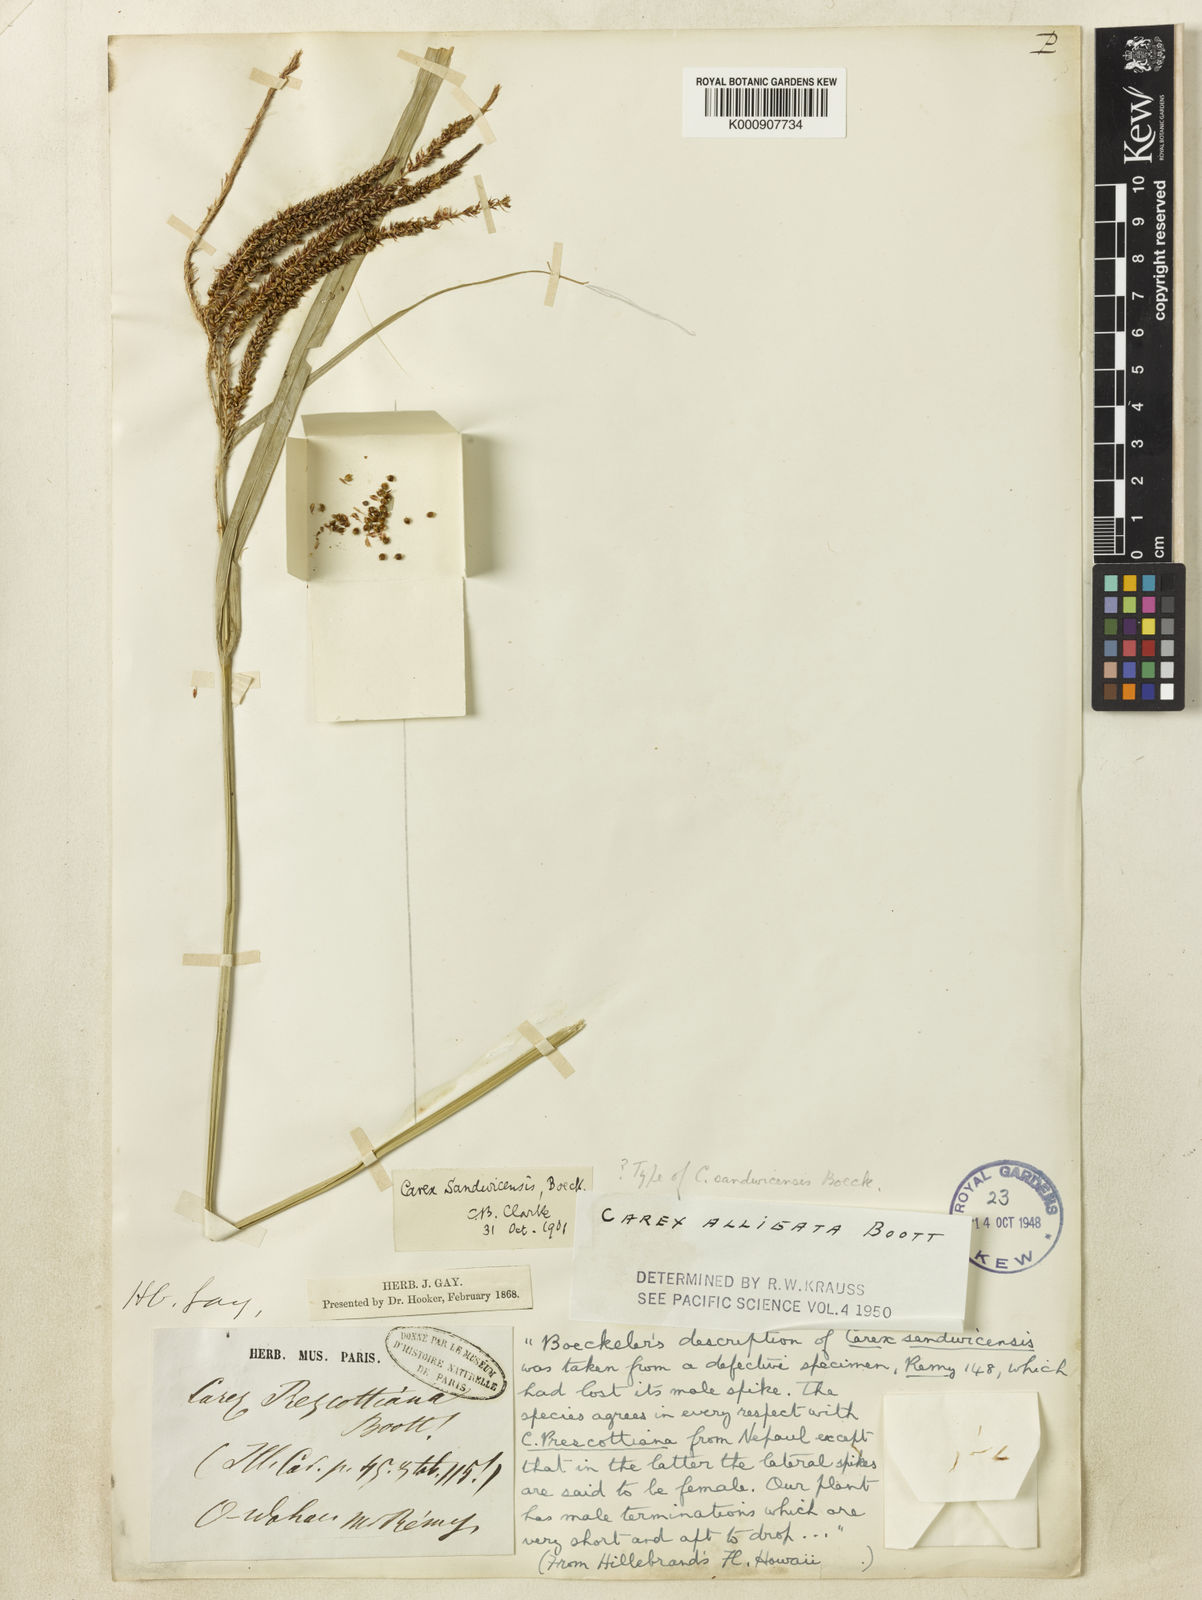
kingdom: Plantae
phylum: Tracheophyta
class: Liliopsida
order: Poales
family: Cyperaceae
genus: Carex
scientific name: Carex alligata
